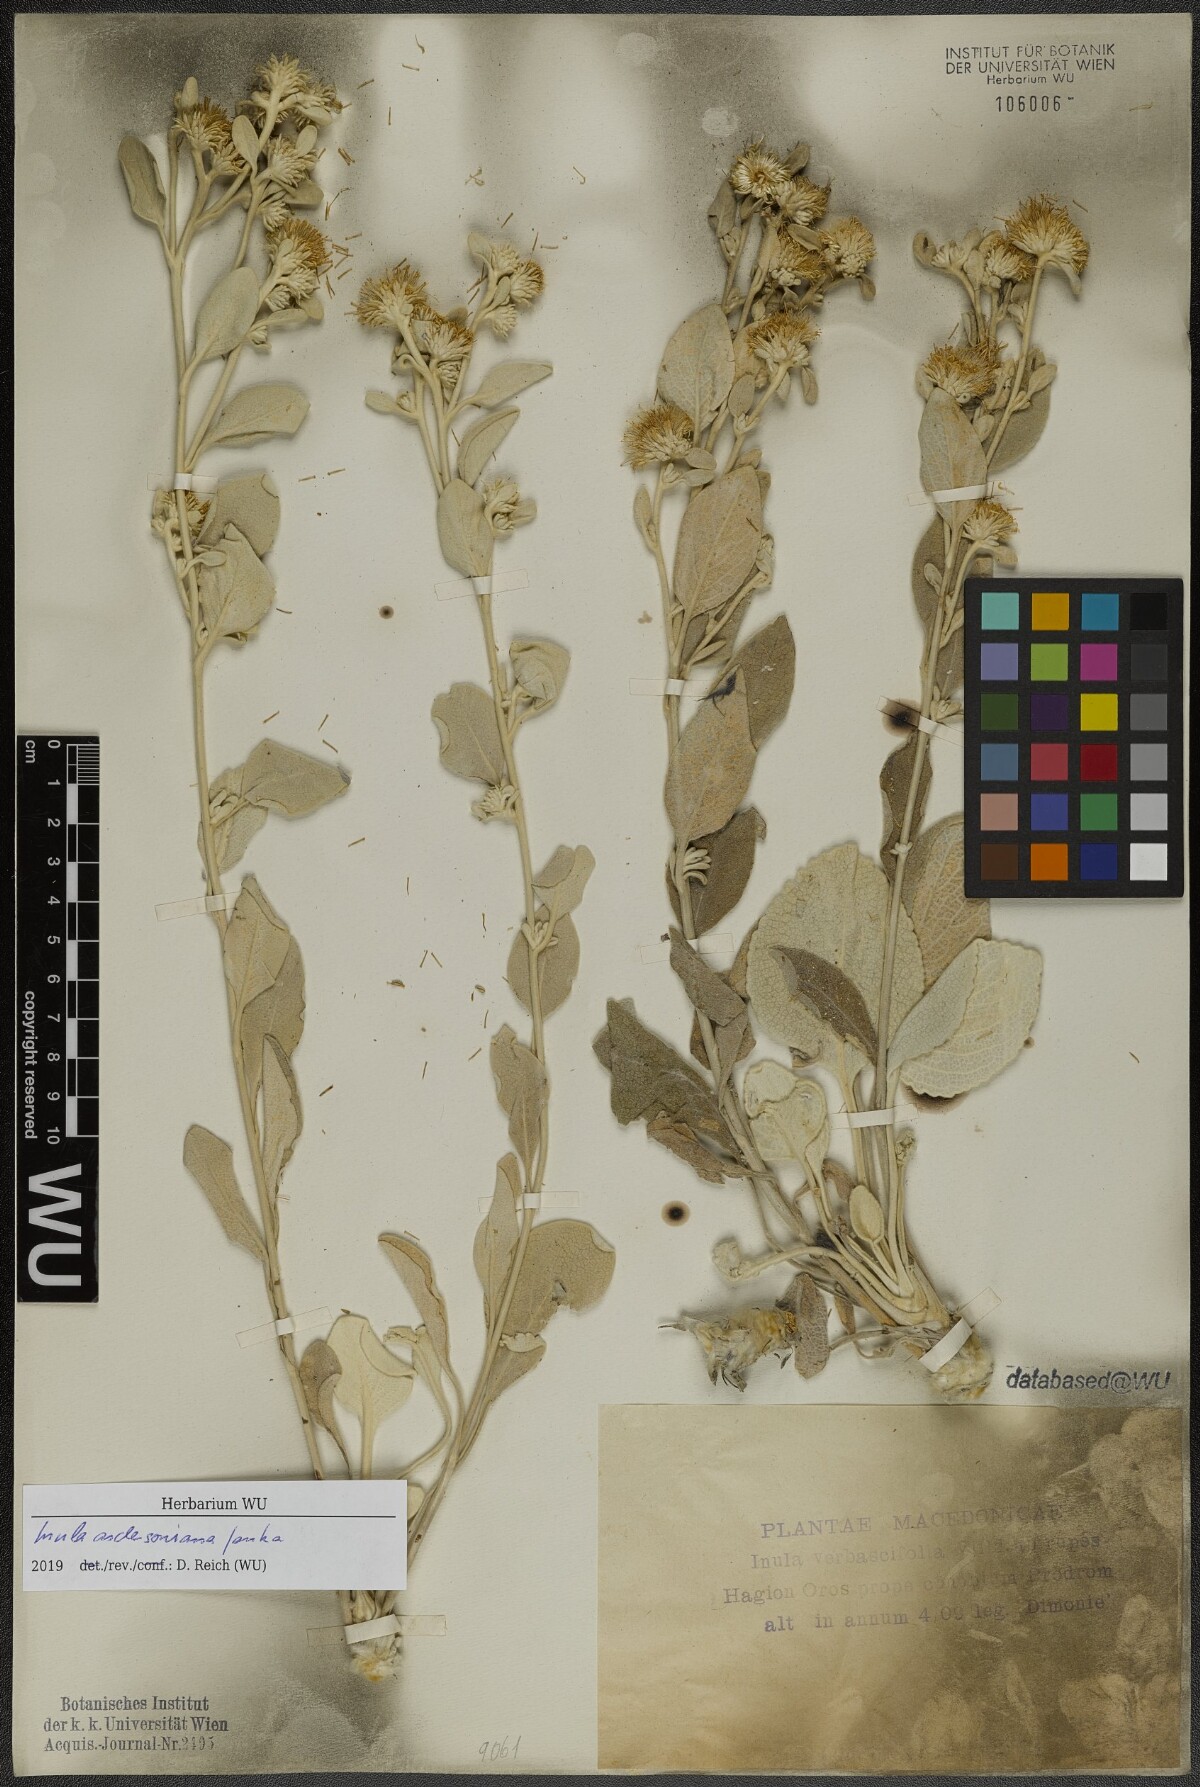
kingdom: Plantae
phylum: Tracheophyta
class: Magnoliopsida
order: Asterales
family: Asteraceae
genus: Pentanema
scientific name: Pentanema aschersonianum
